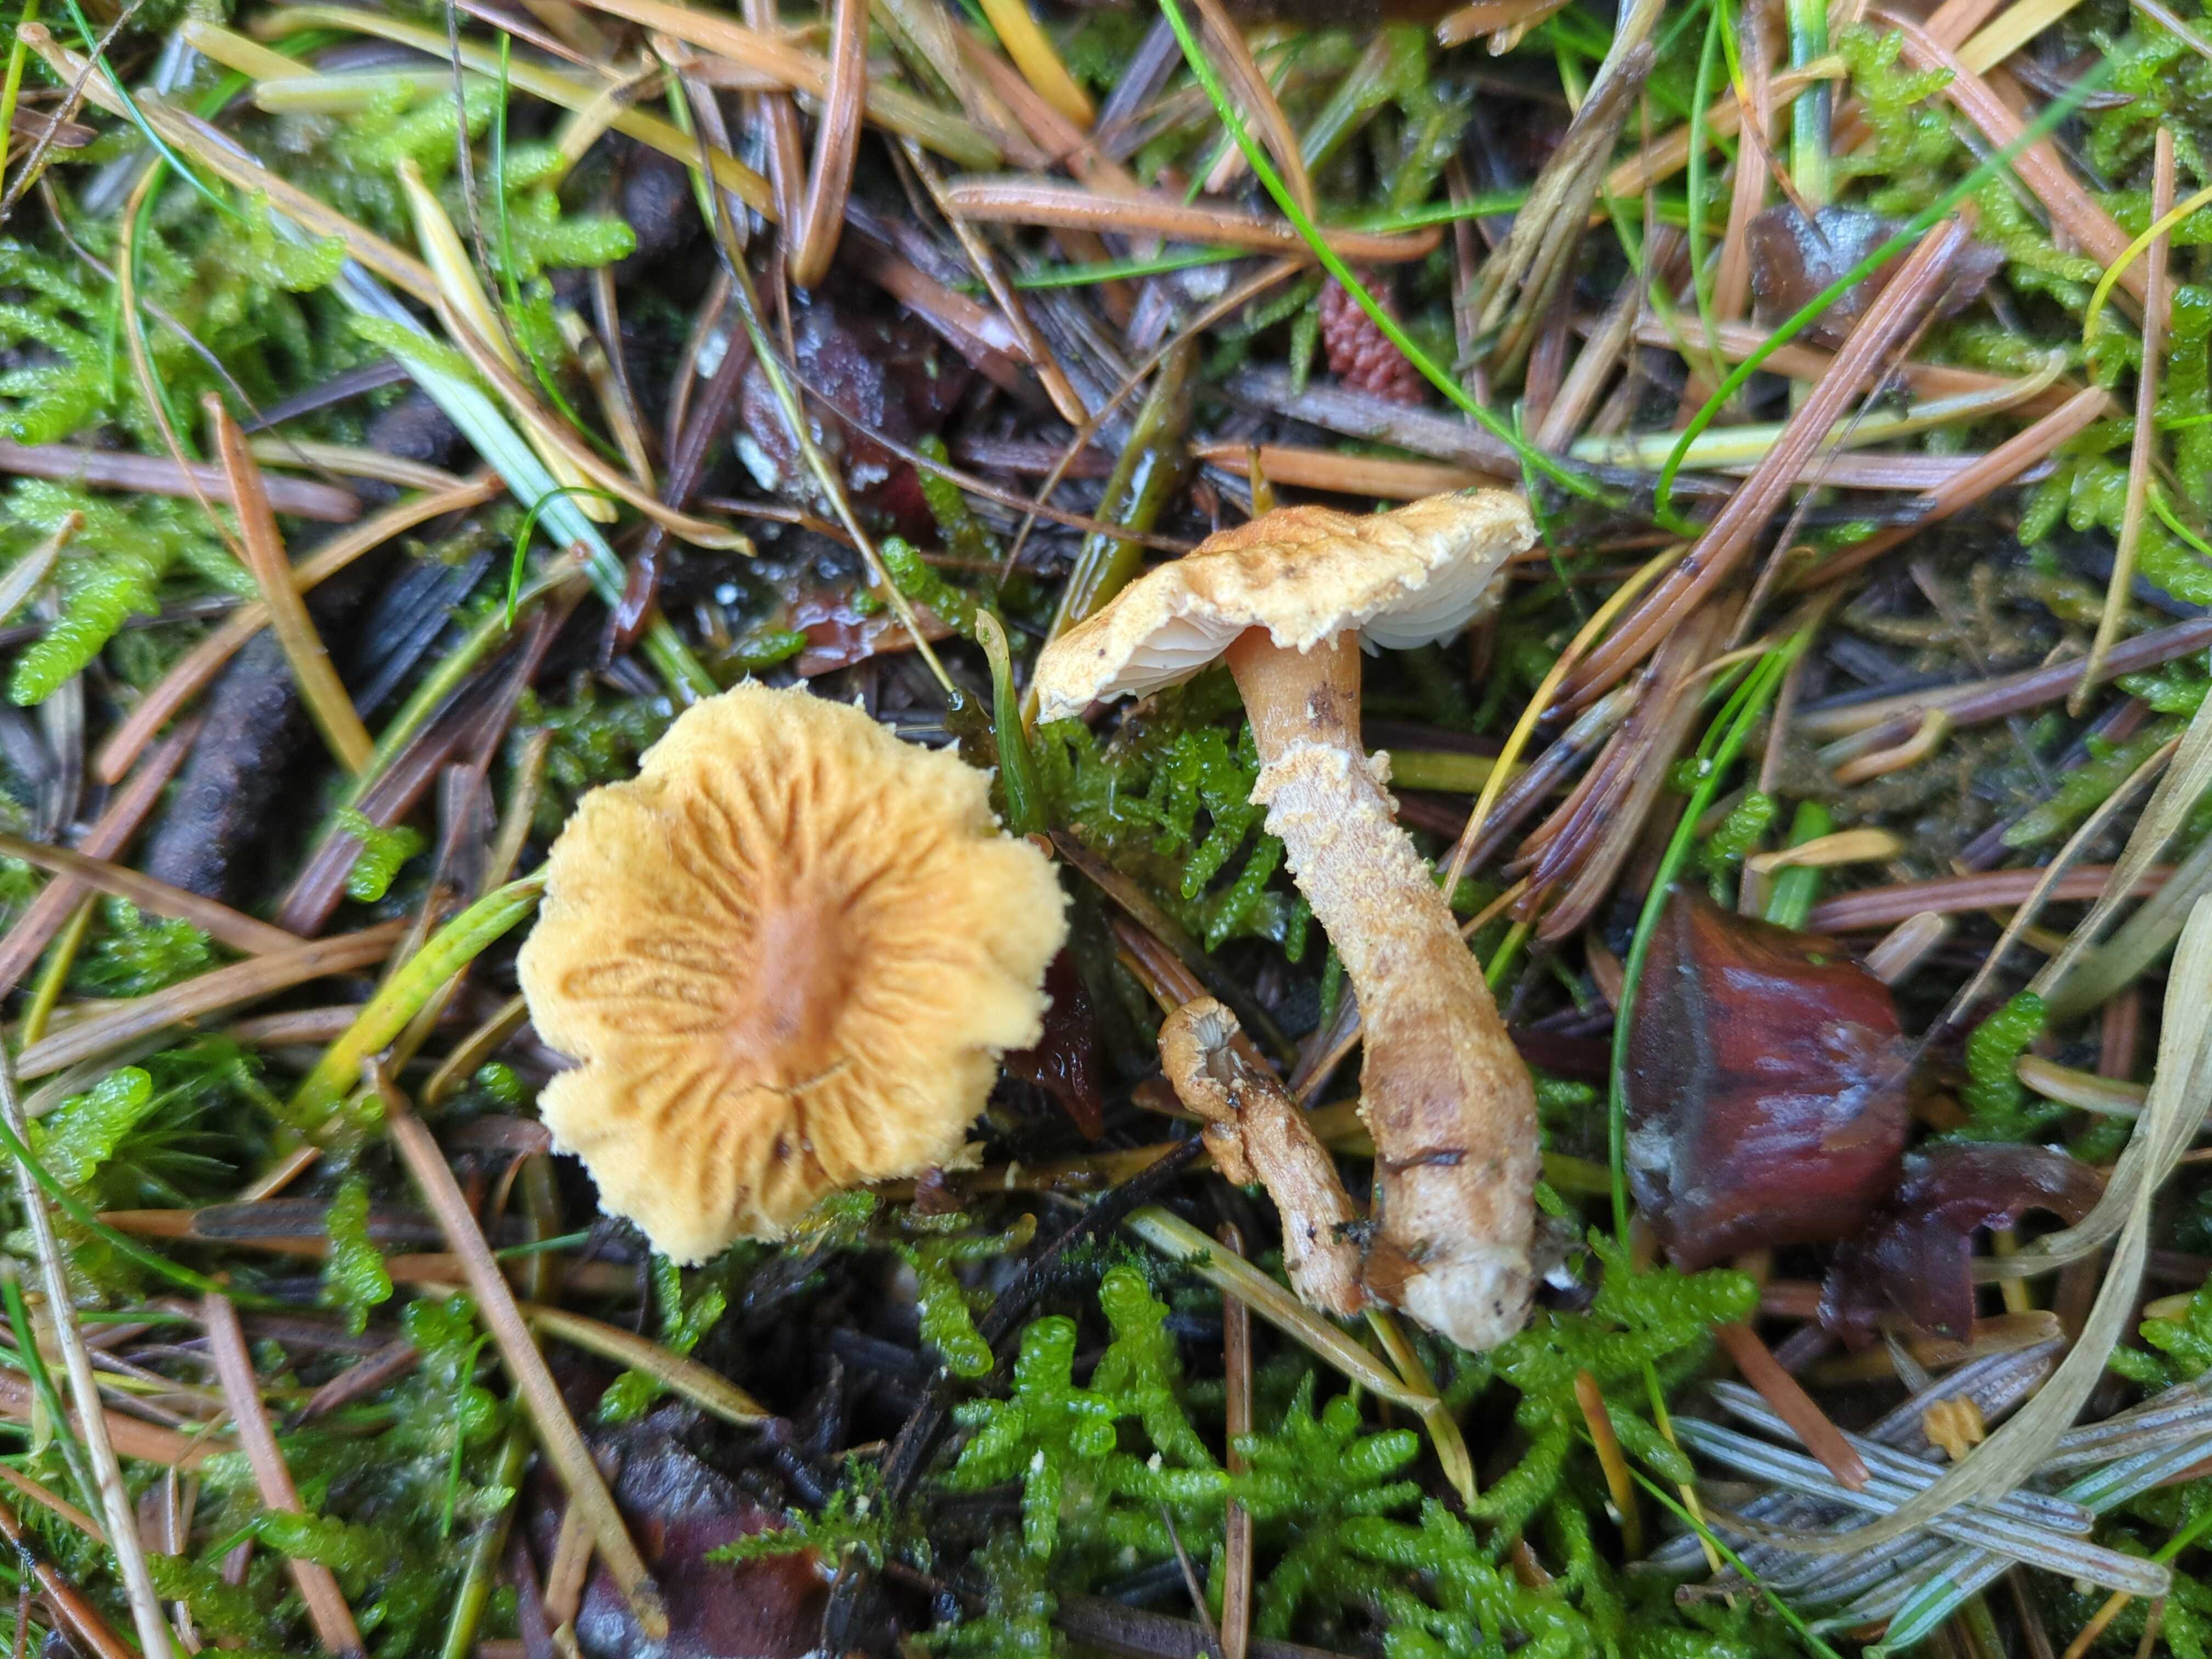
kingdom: Fungi
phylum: Basidiomycota
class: Agaricomycetes
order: Agaricales
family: Tricholomataceae
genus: Cystoderma
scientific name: Cystoderma amianthinum
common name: okkergul grynhat
